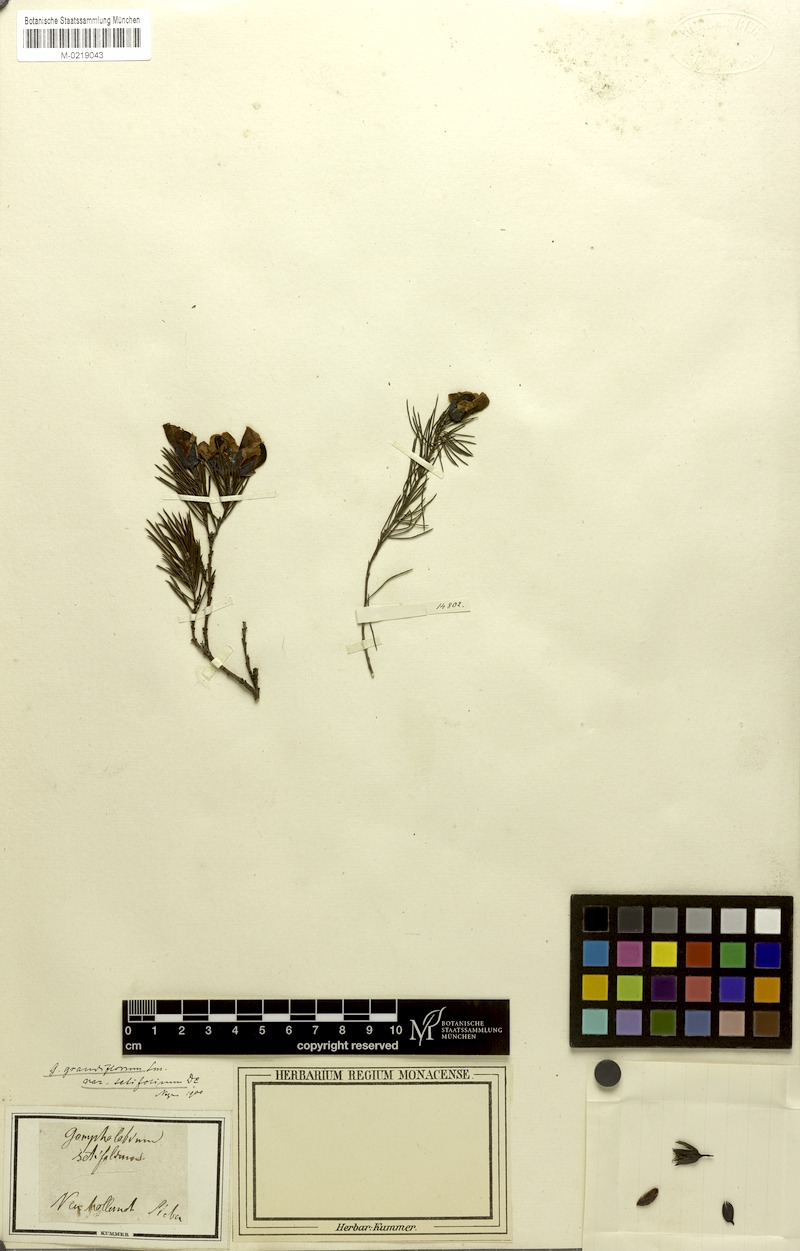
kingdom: Plantae
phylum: Tracheophyta
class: Magnoliopsida
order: Fabales
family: Fabaceae
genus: Gompholobium
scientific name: Gompholobium grandiflorum
